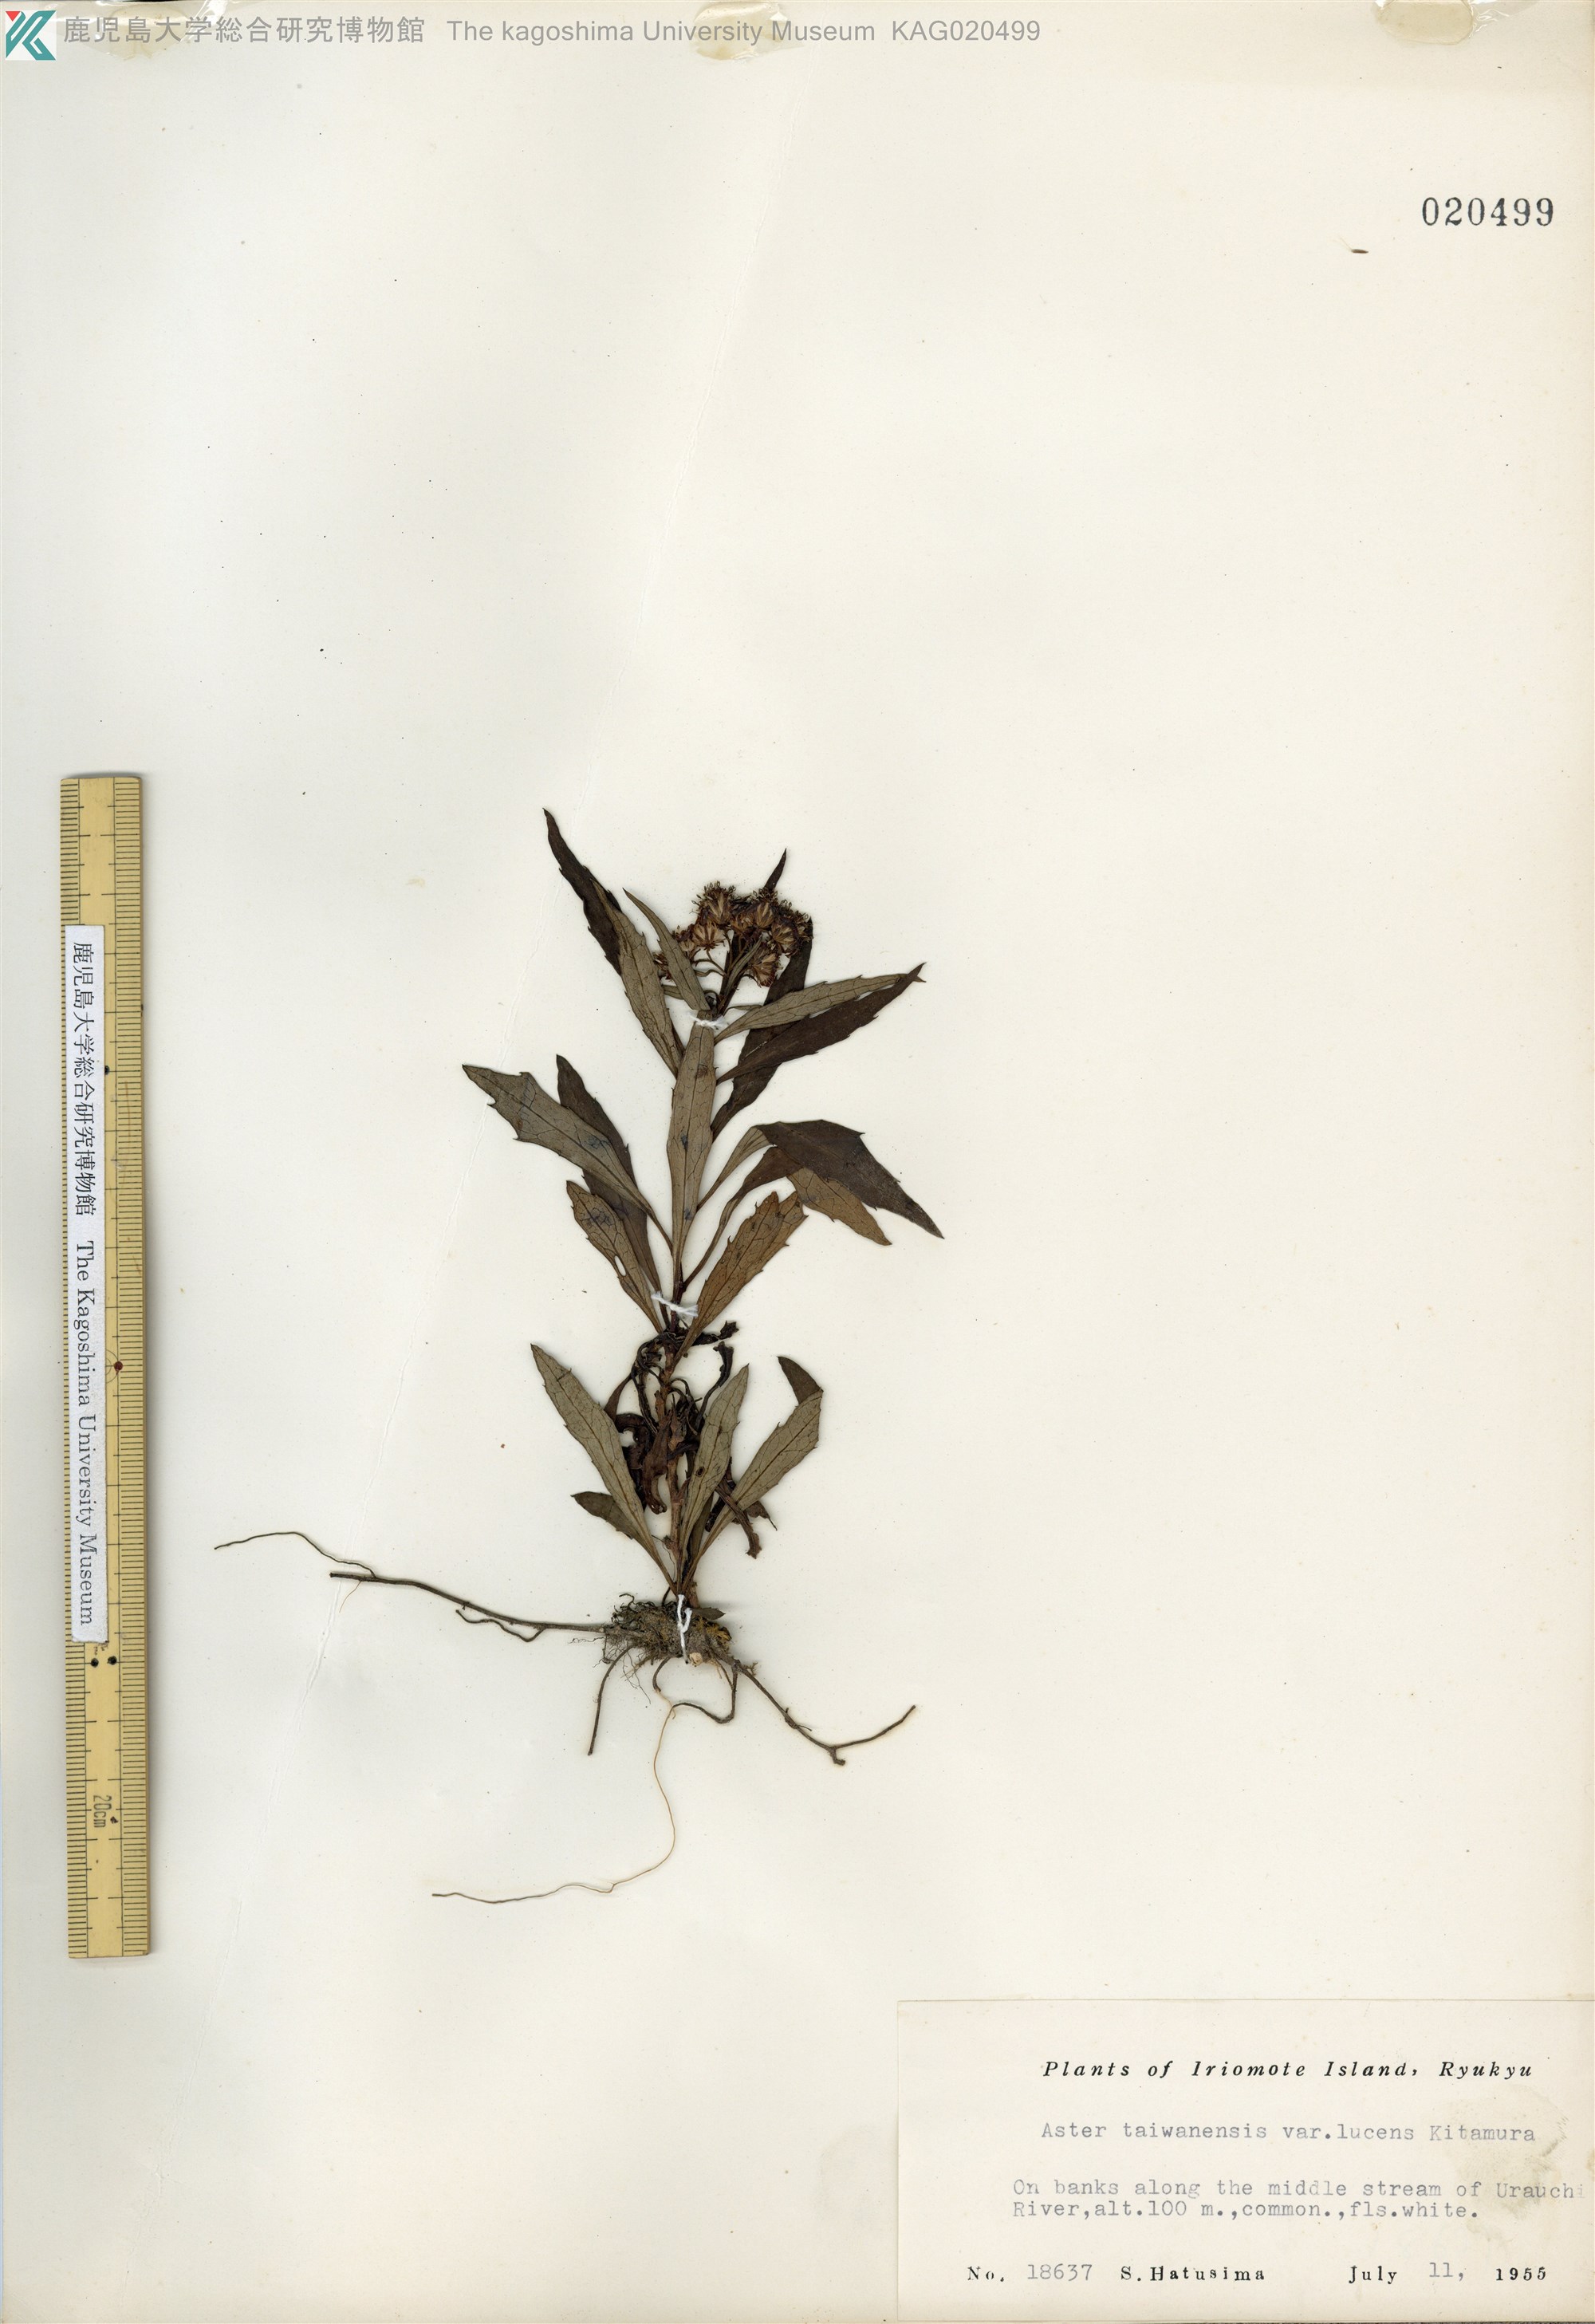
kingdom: Plantae
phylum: Tracheophyta
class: Magnoliopsida
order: Asterales
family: Asteraceae
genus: Aster
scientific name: Aster taiwanensis
